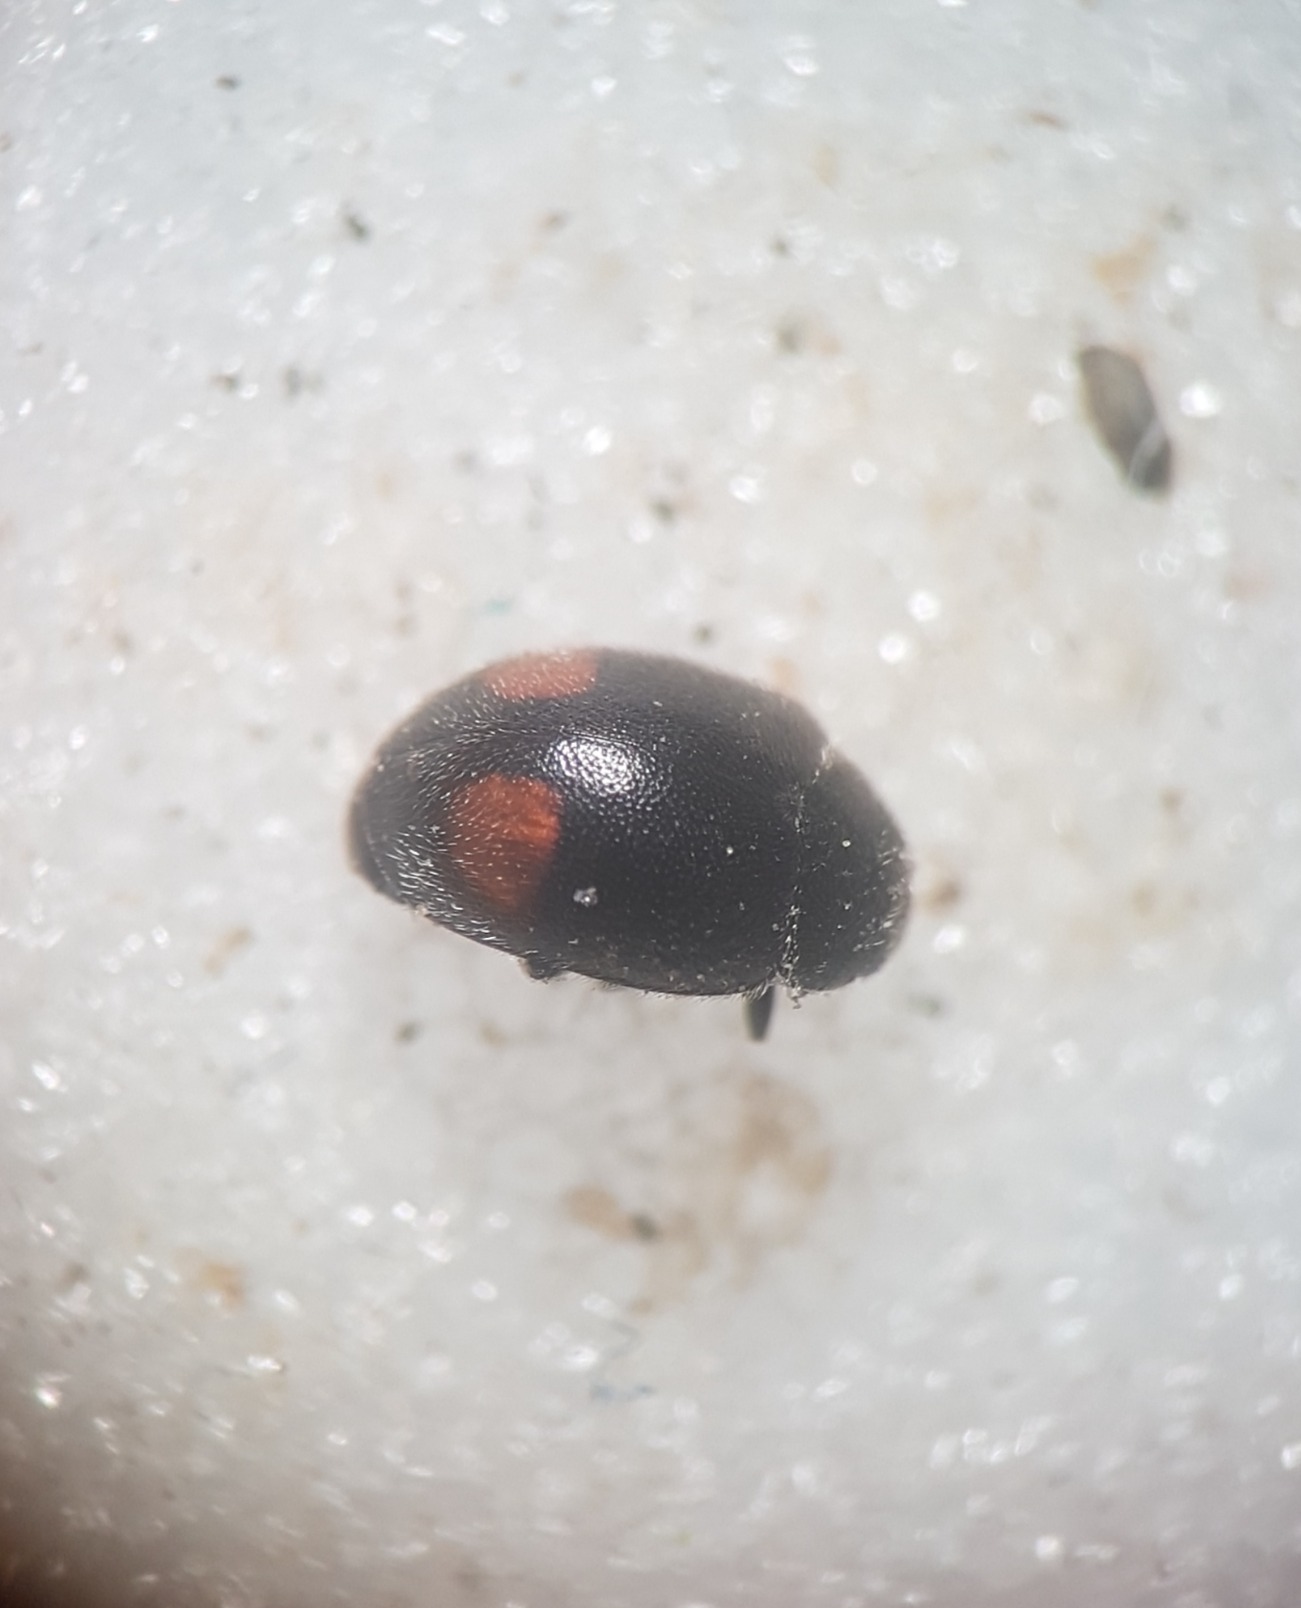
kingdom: Animalia
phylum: Arthropoda
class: Insecta
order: Coleoptera
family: Coccinellidae
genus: Nephus
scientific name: Nephus bipunctatus
